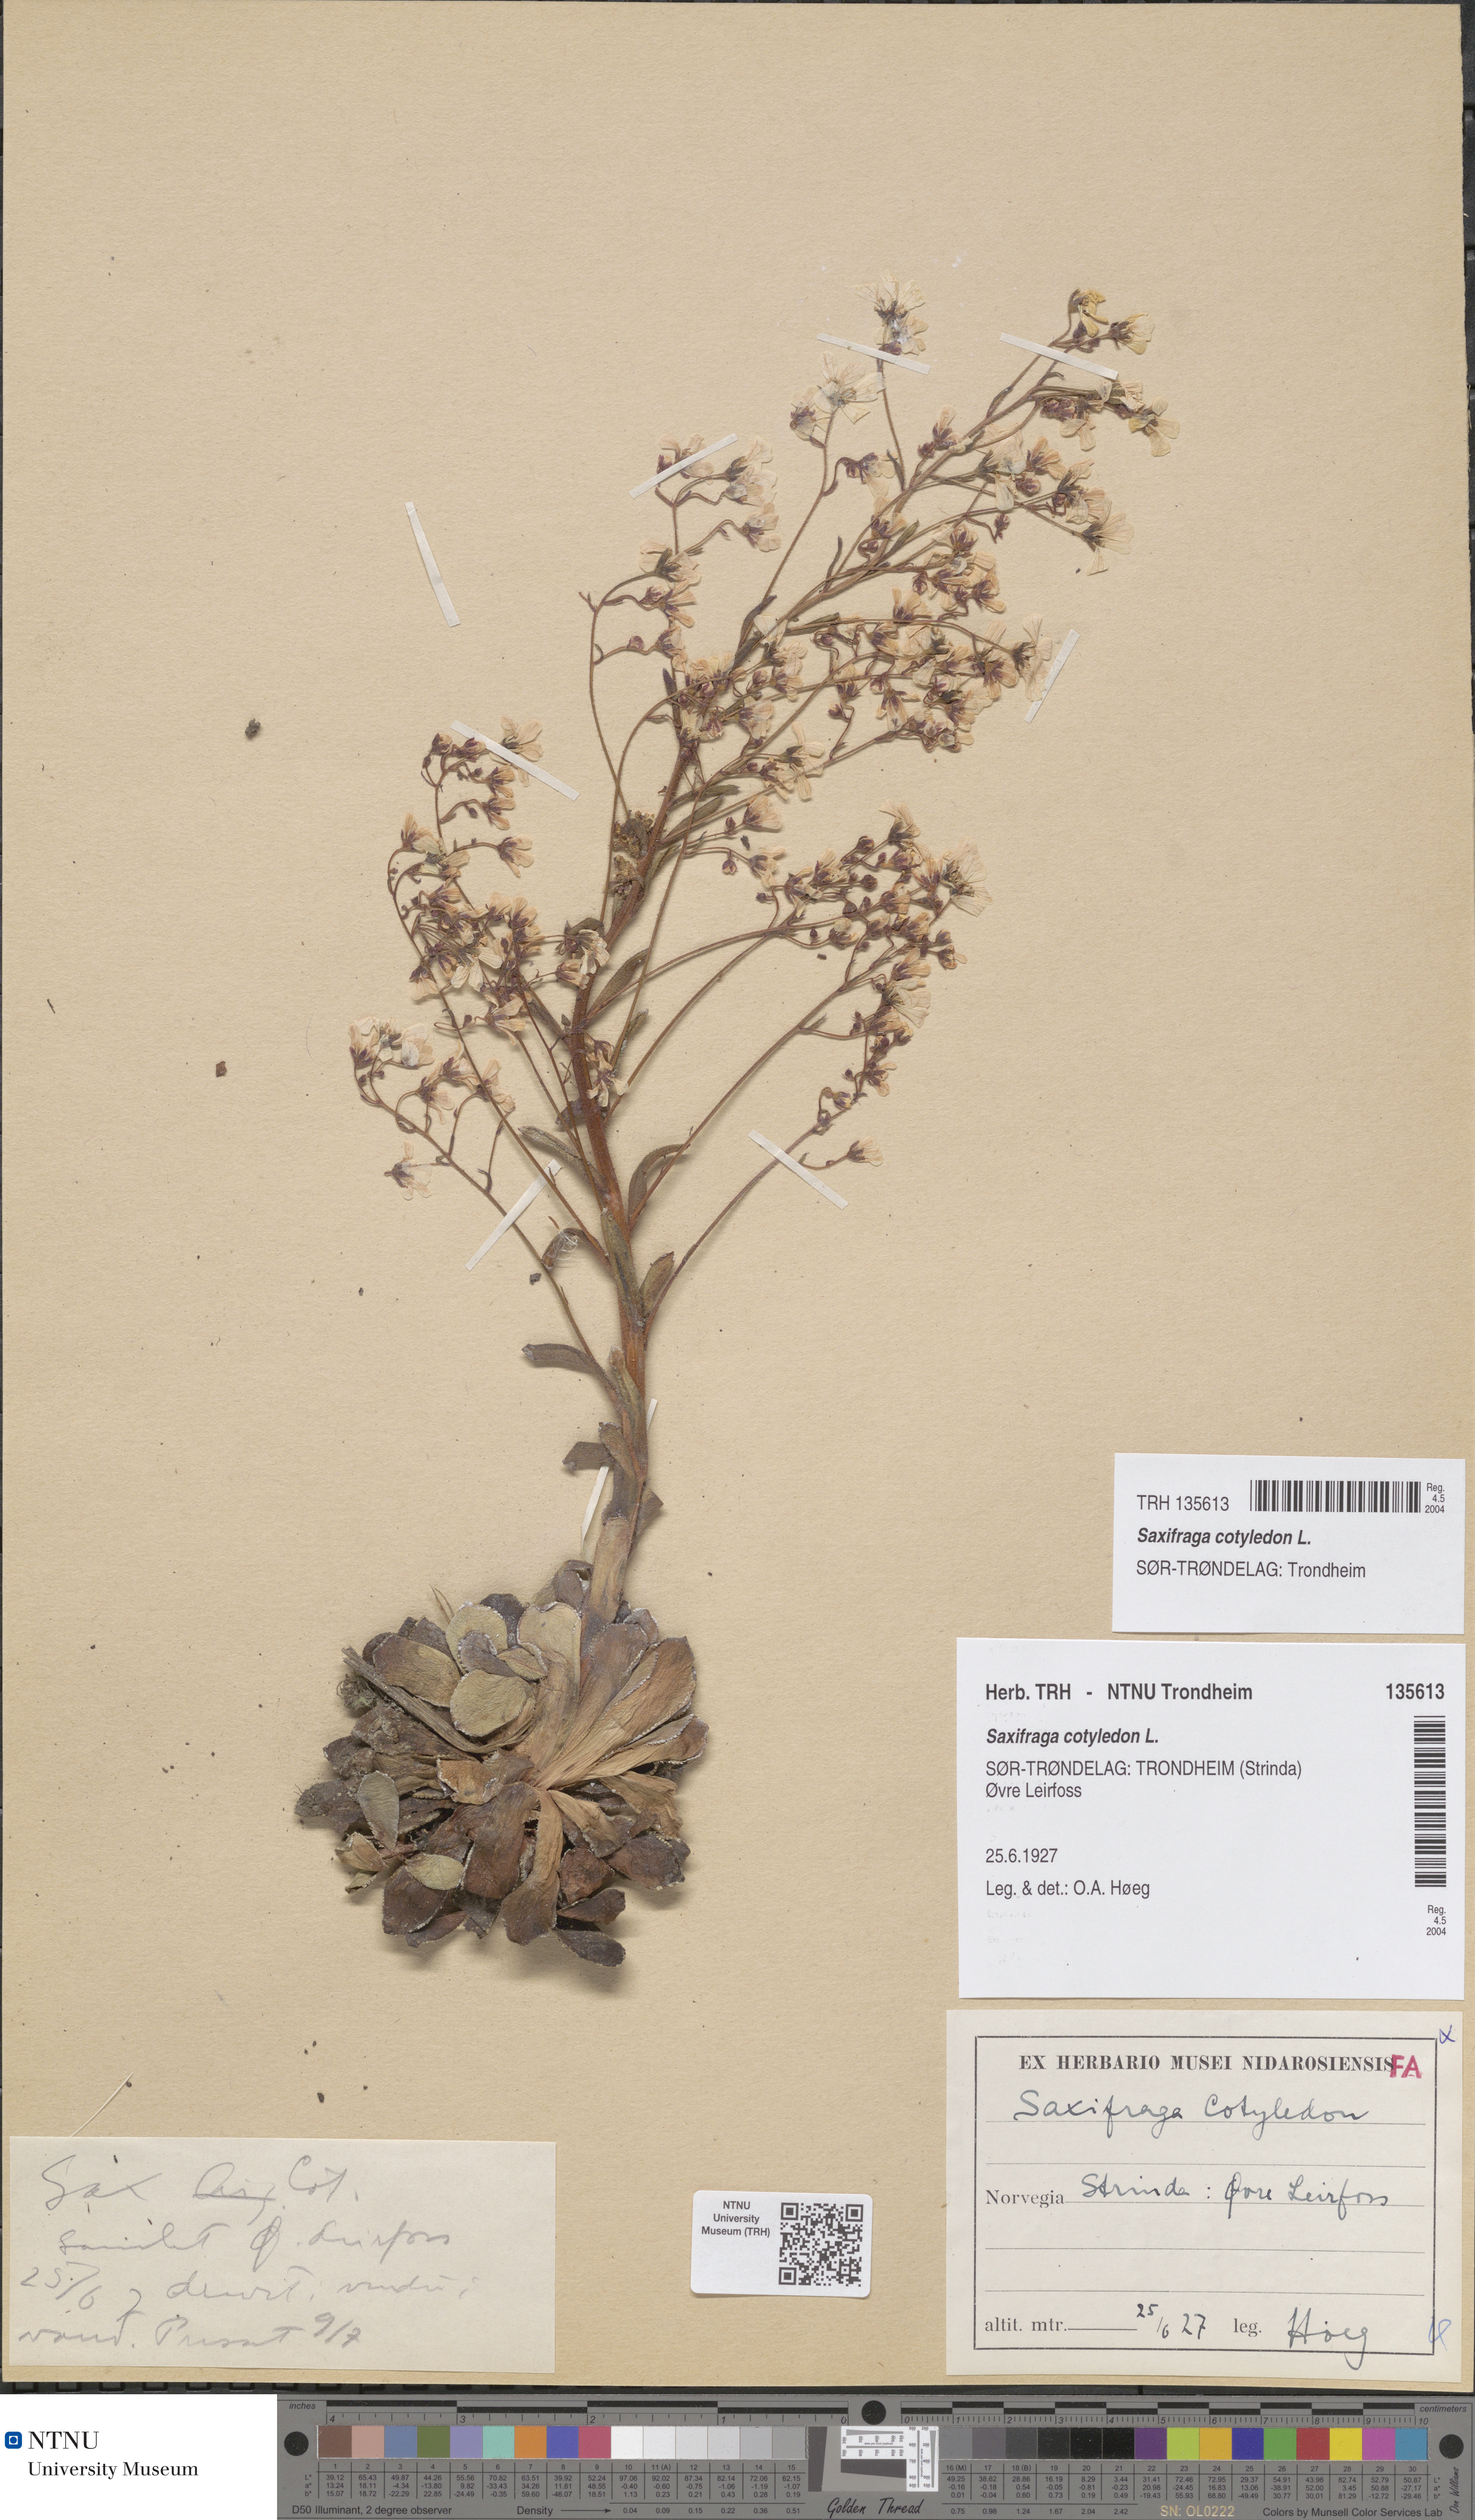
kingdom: Plantae
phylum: Tracheophyta
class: Magnoliopsida
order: Saxifragales
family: Saxifragaceae
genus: Saxifraga
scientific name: Saxifraga cotyledon
